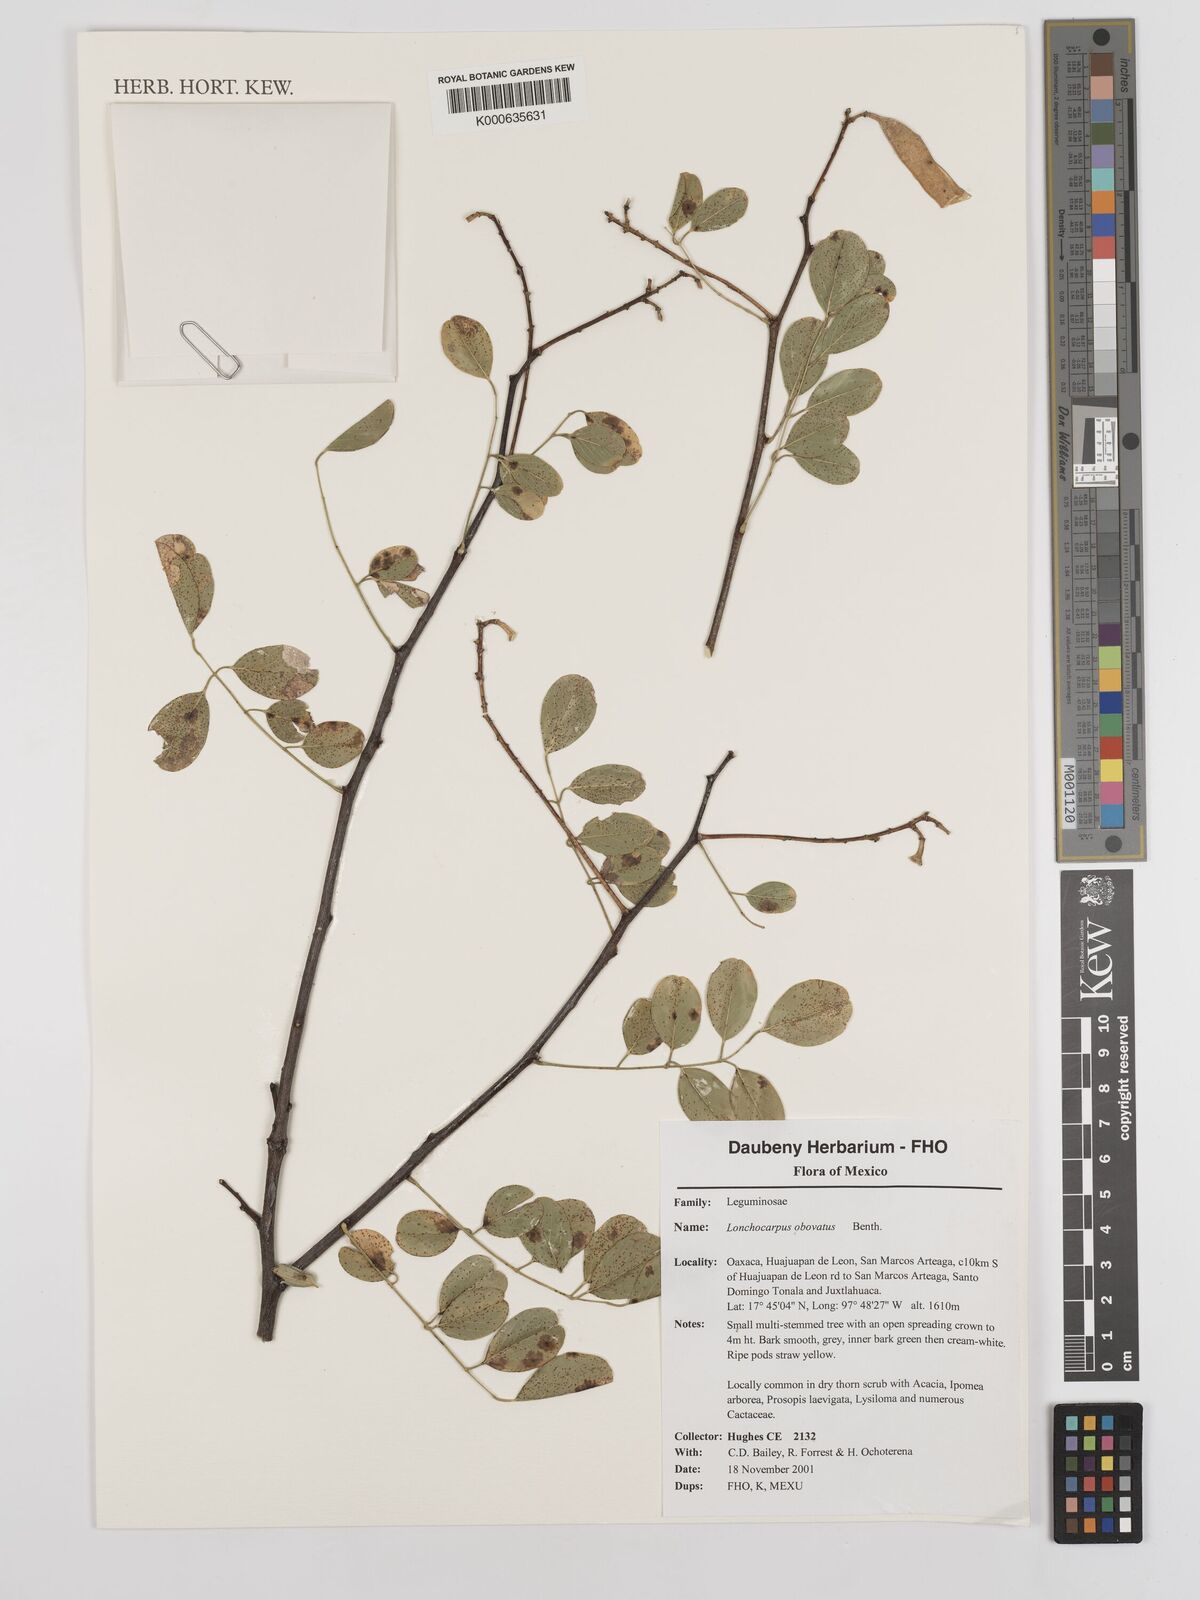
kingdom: Plantae
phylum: Tracheophyta
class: Magnoliopsida
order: Fabales
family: Fabaceae
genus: Lonchocarpus
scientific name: Lonchocarpus obovatus
